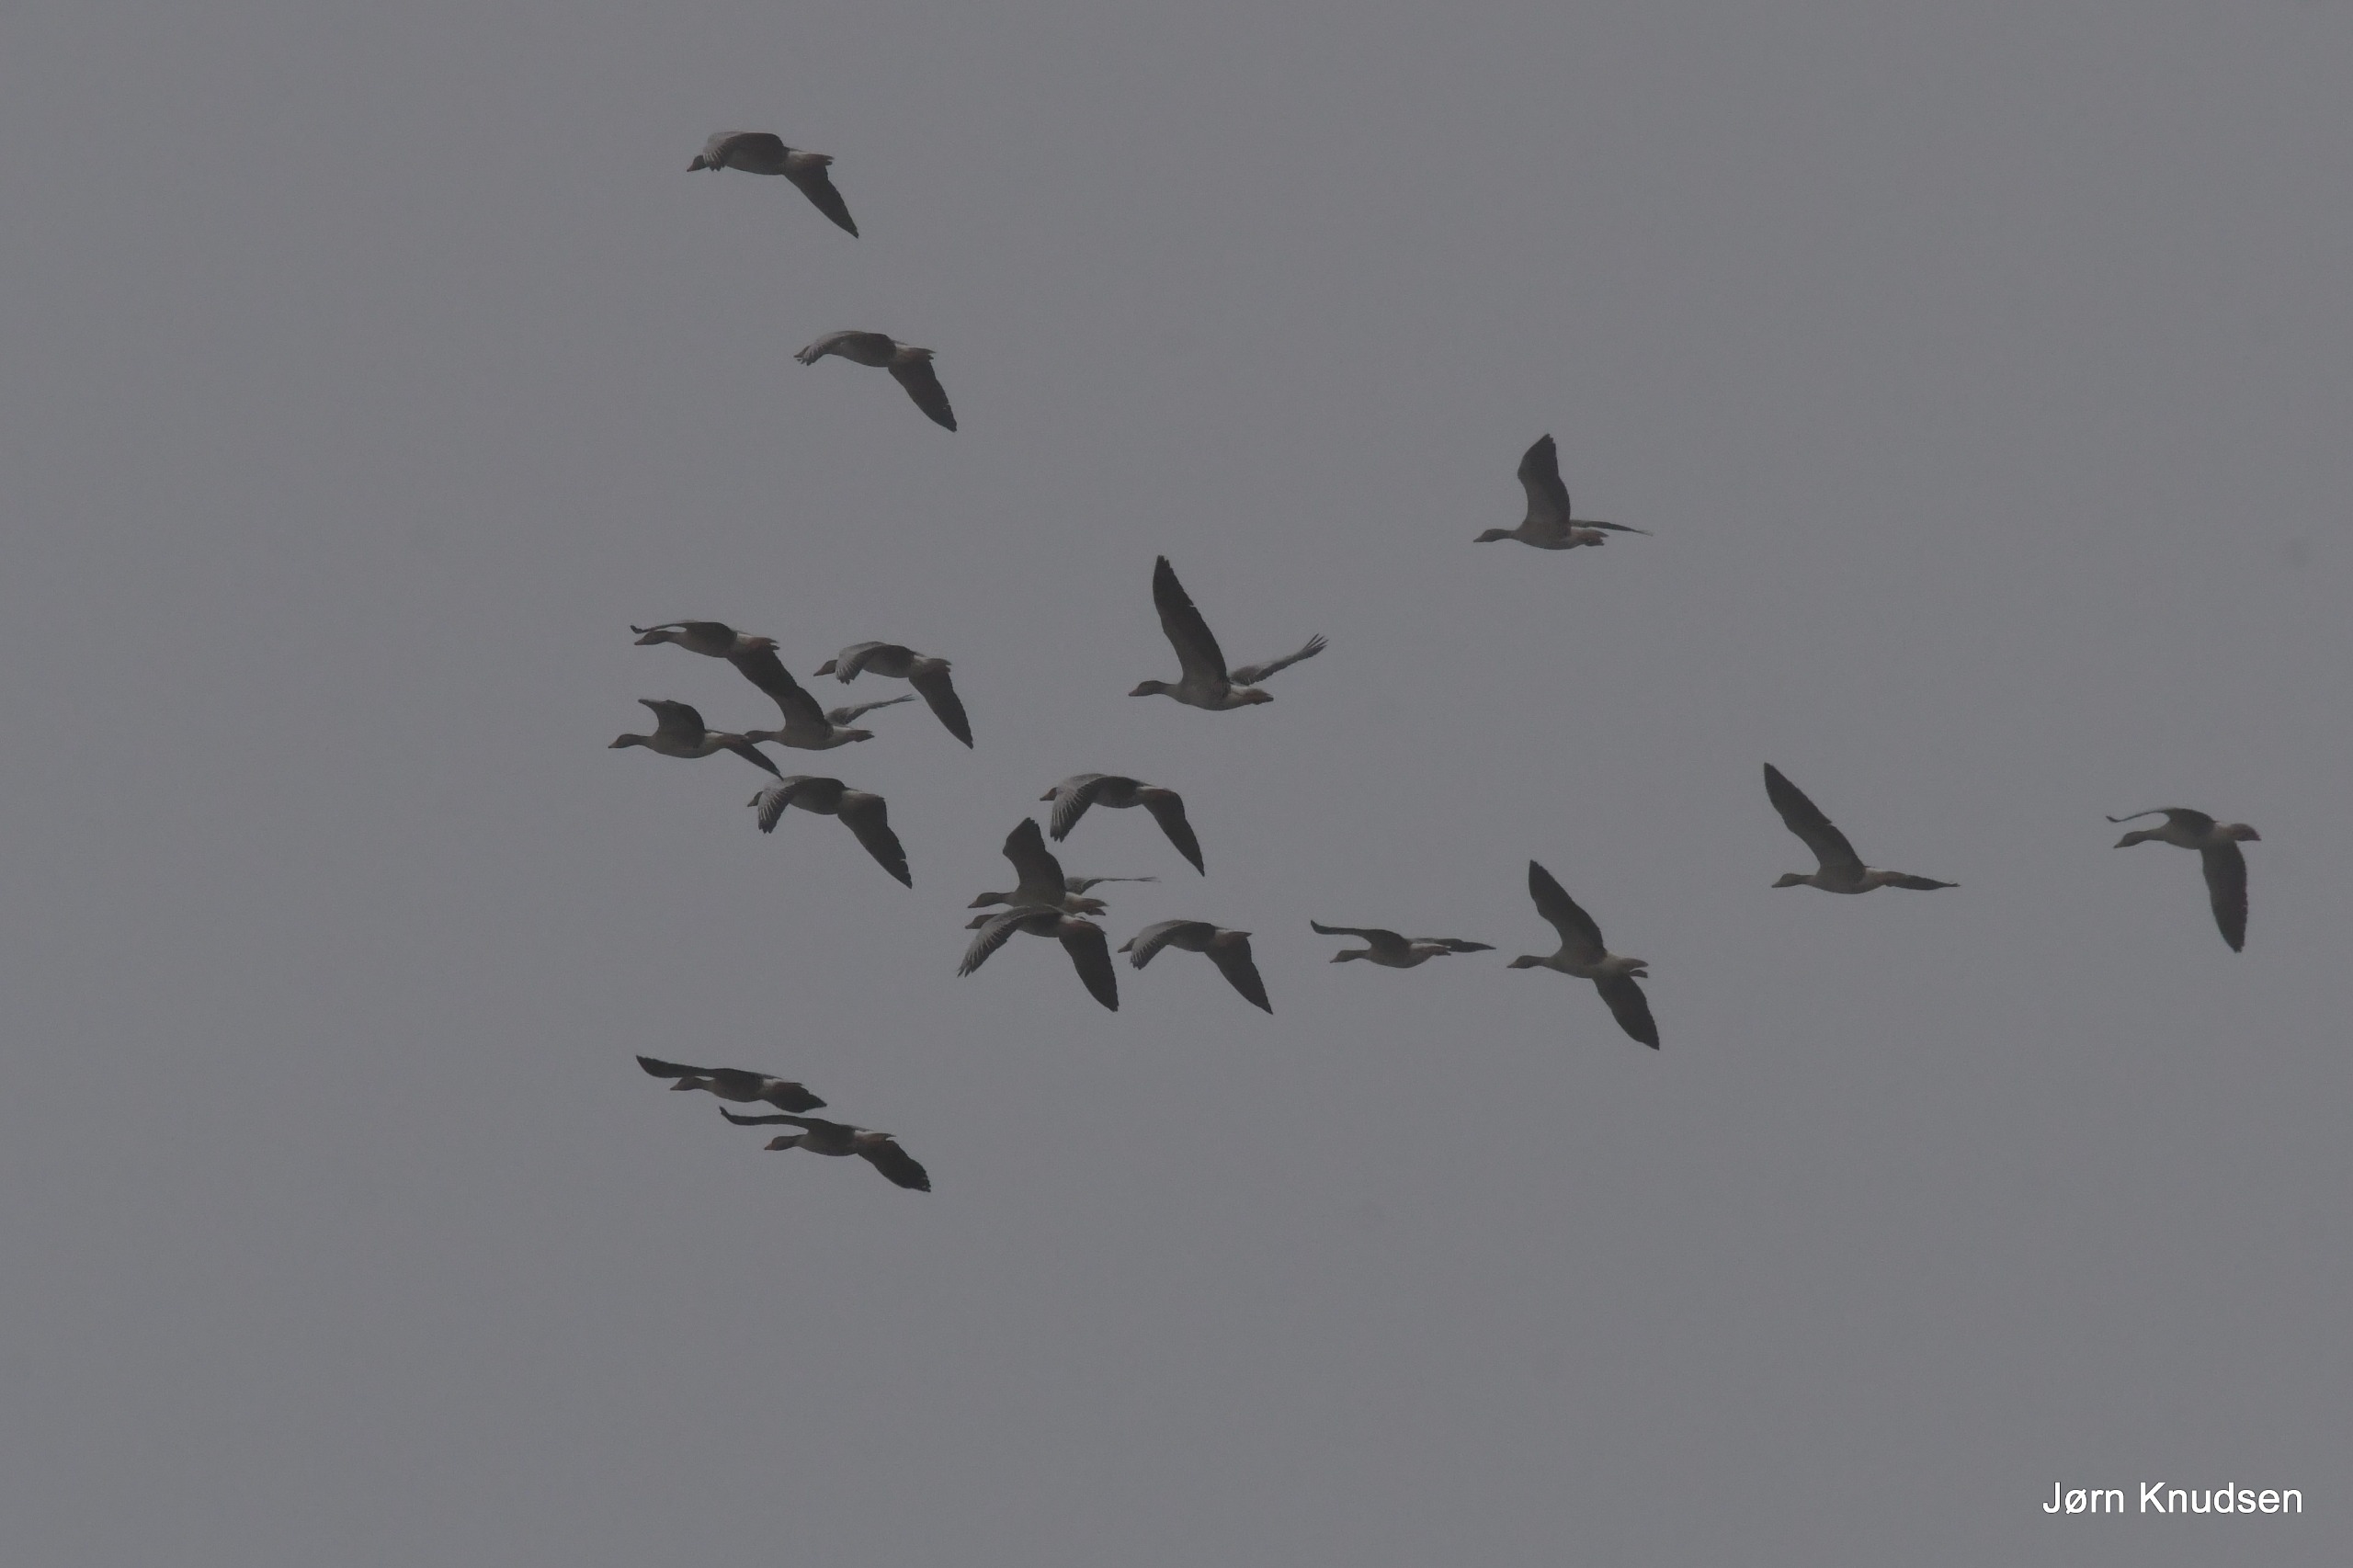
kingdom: Animalia
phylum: Chordata
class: Aves
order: Anseriformes
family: Anatidae
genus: Anser
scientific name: Anser anser
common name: Grågås
